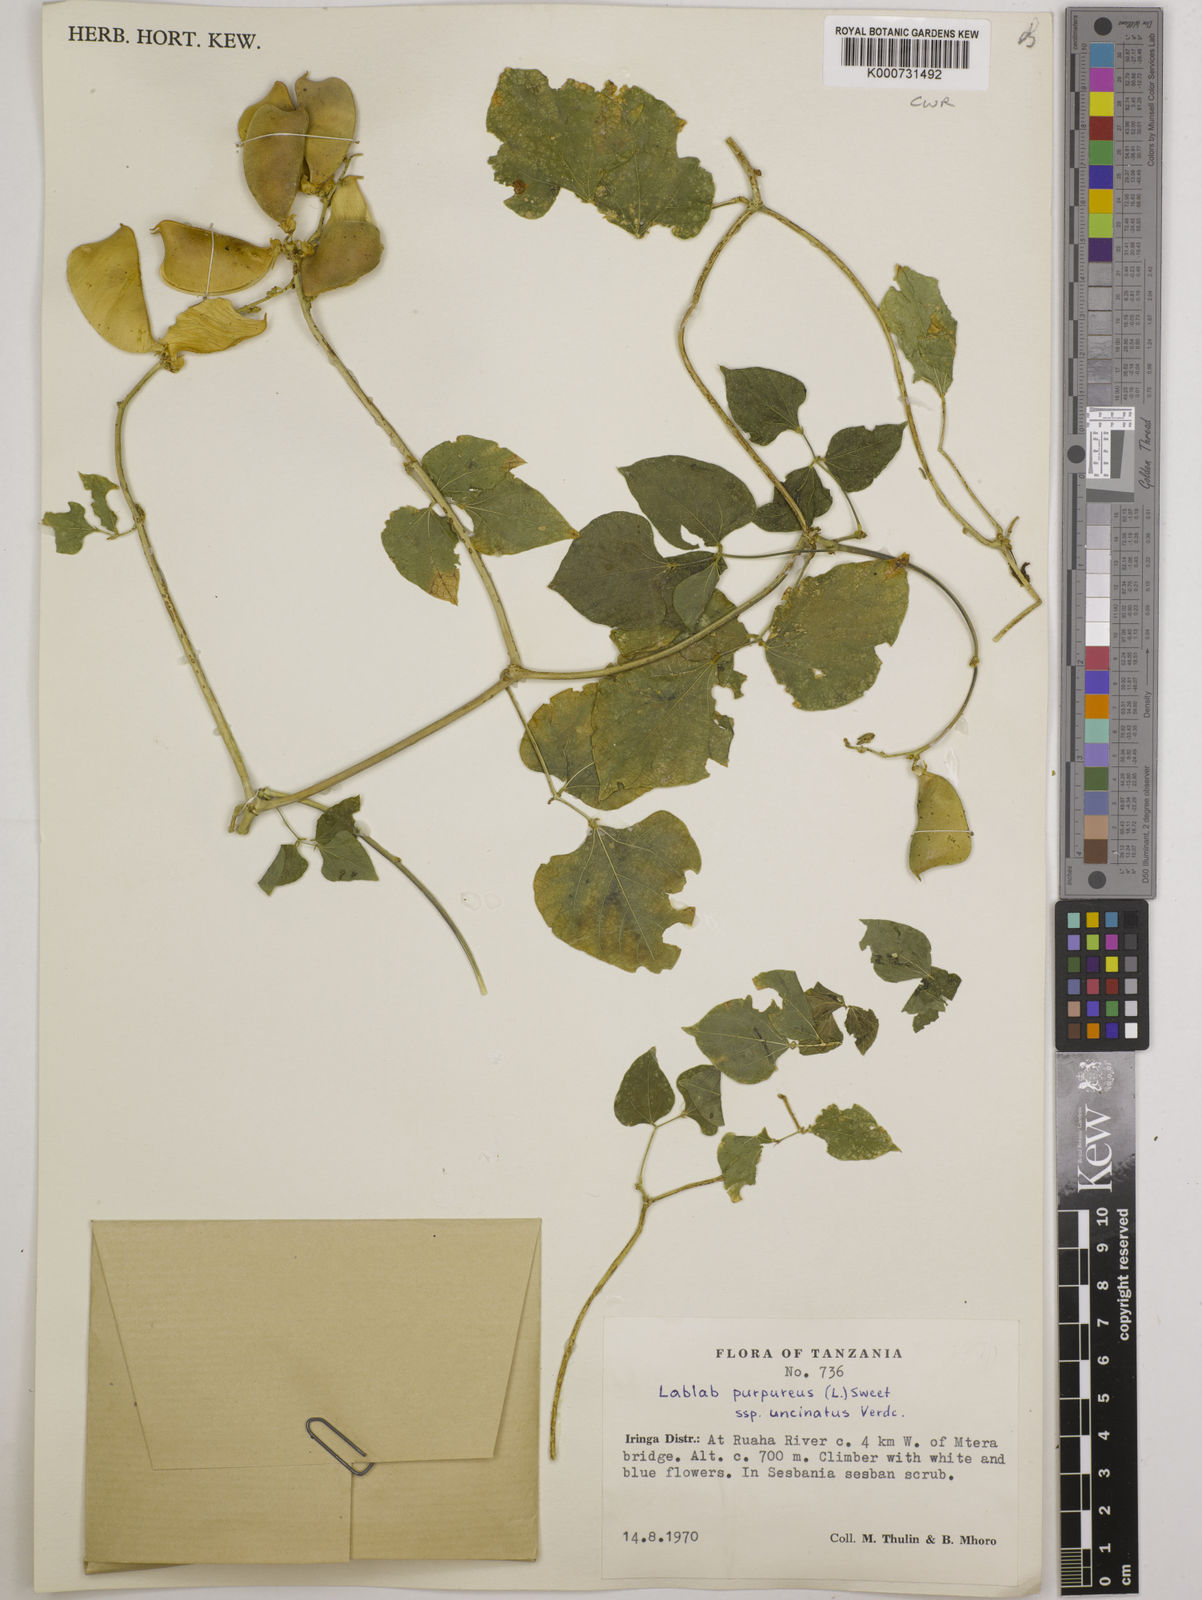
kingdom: Plantae
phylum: Tracheophyta
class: Magnoliopsida
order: Fabales
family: Fabaceae
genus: Lablab
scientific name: Lablab purpureus
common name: Lablab-bean
